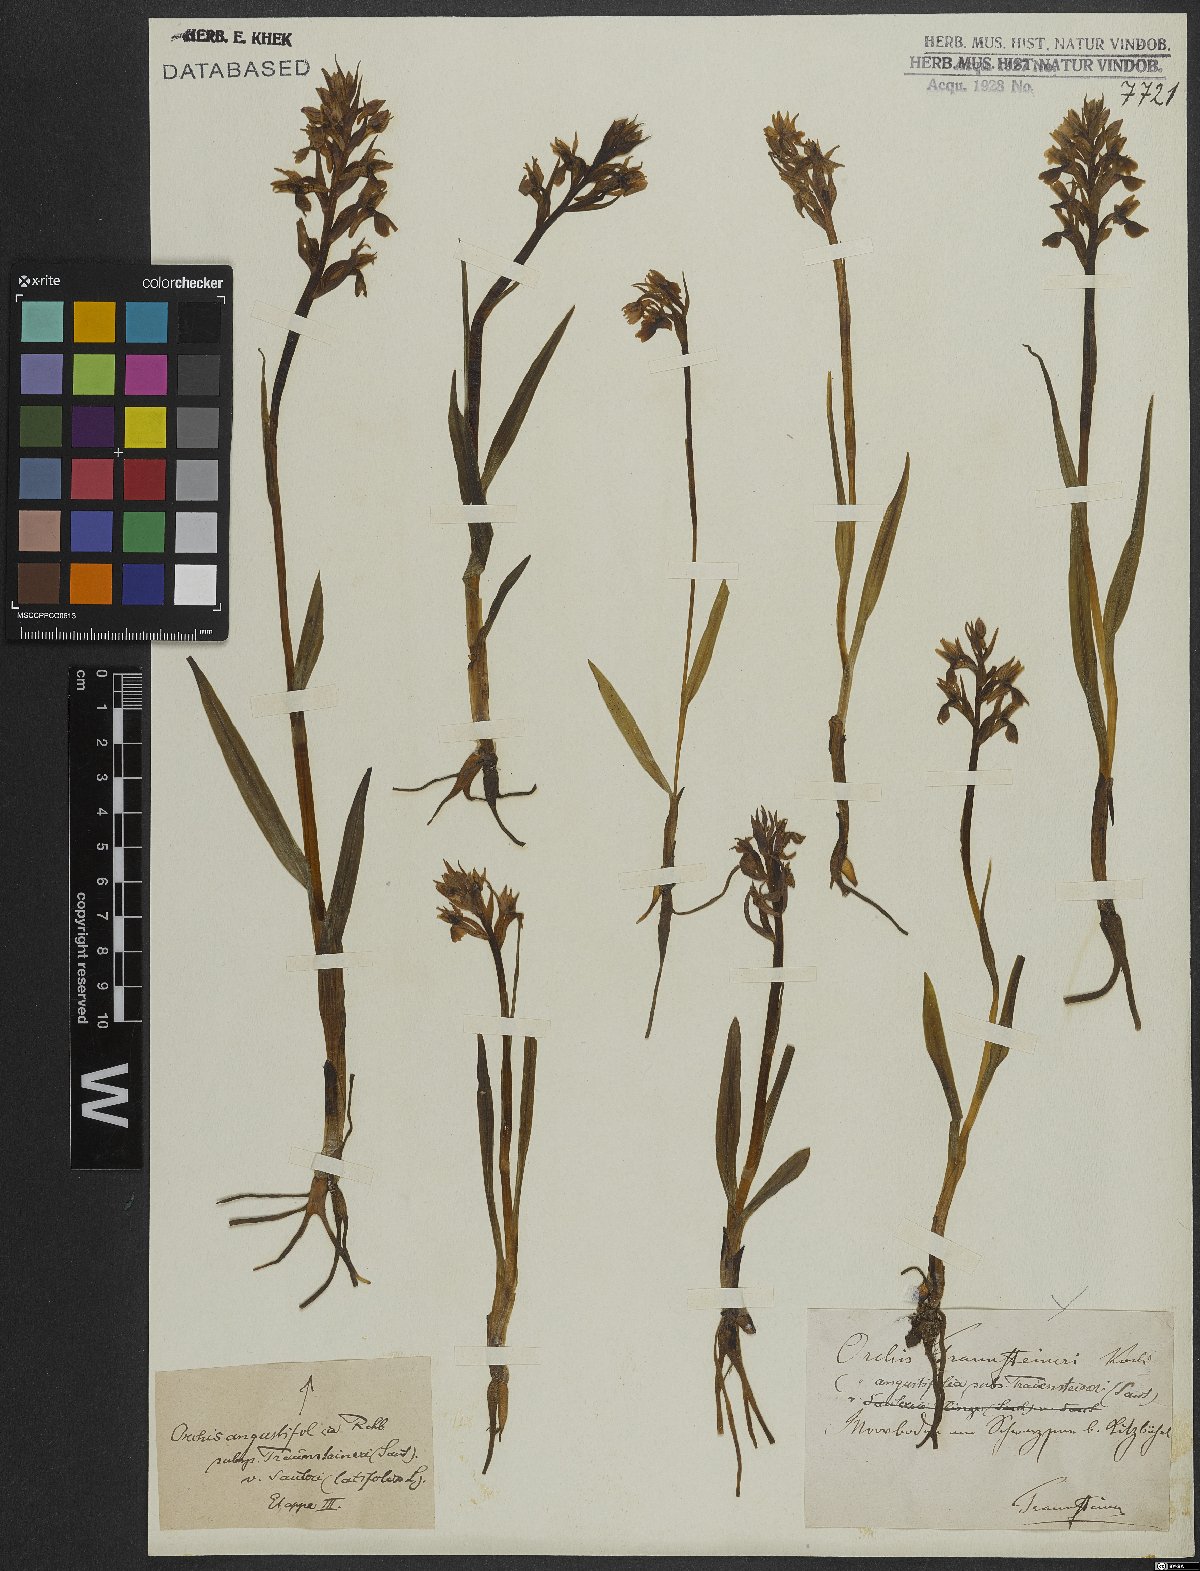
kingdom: Plantae
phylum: Tracheophyta
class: Liliopsida
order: Asparagales
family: Orchidaceae
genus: Dactylorhiza
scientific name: Dactylorhiza incarnata
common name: Early marsh-orchid
